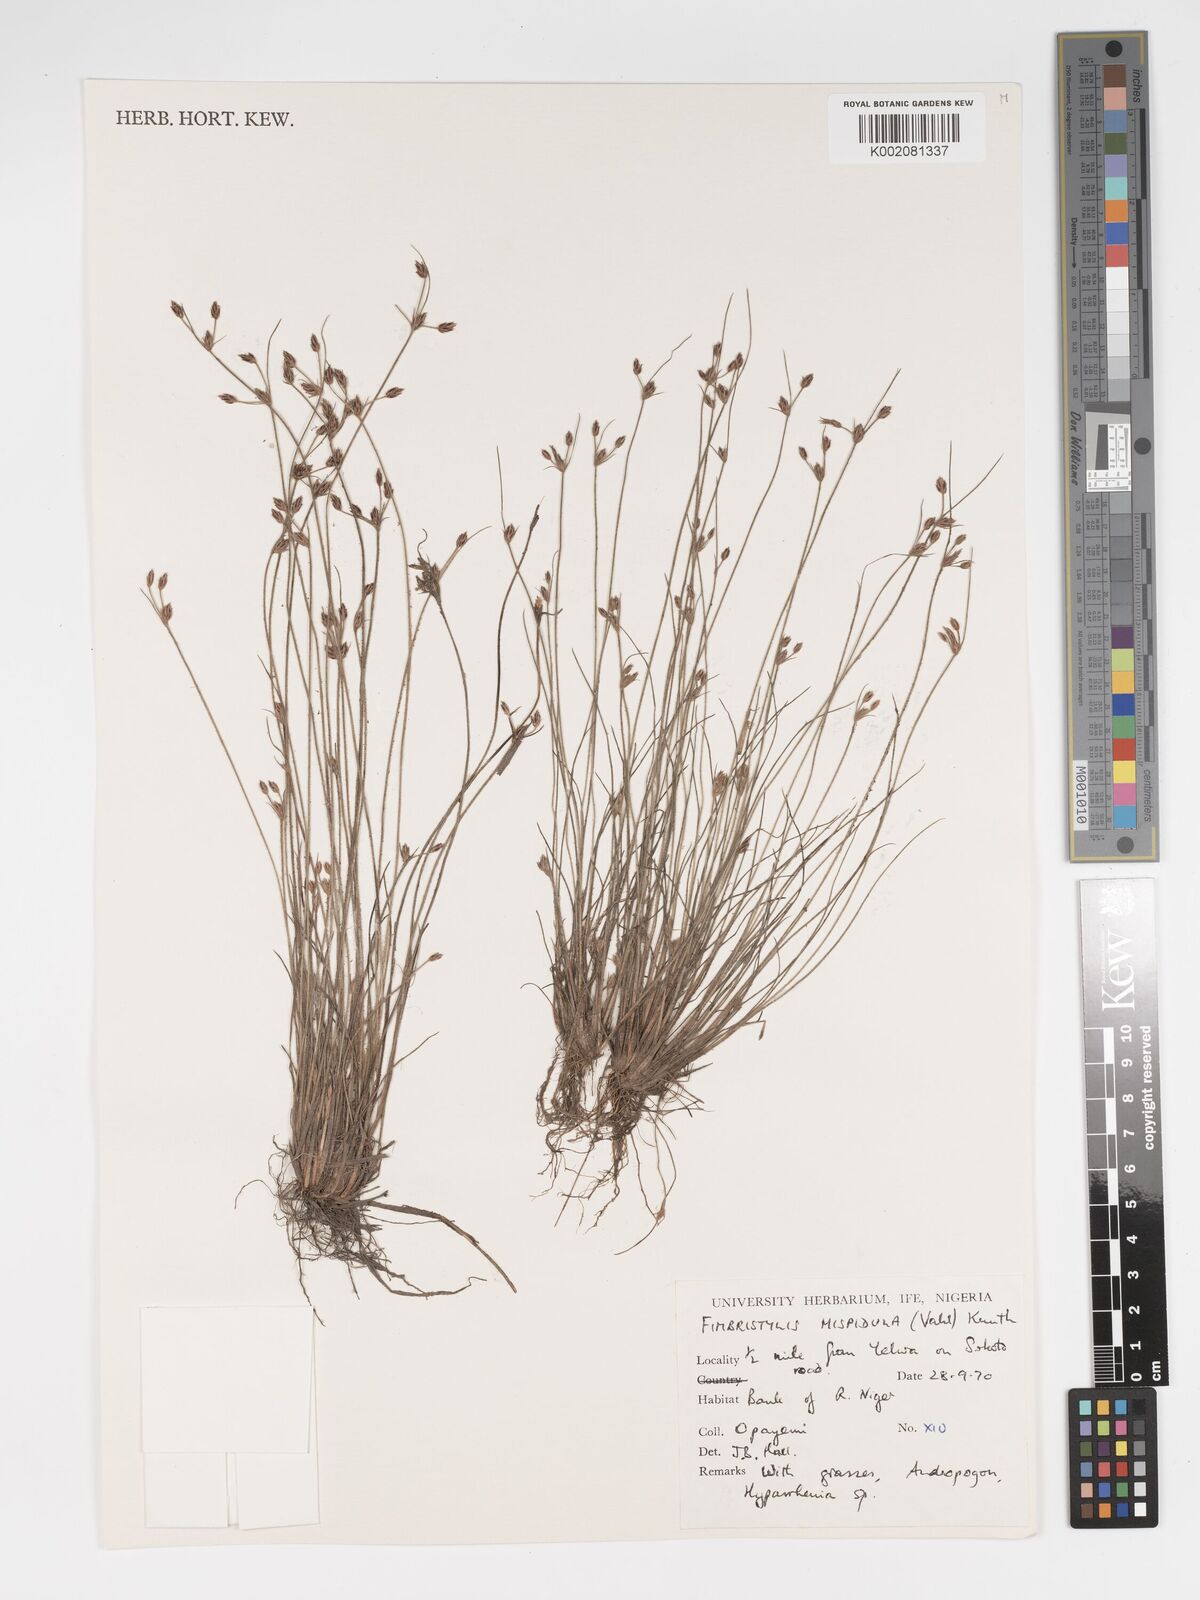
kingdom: Plantae
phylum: Tracheophyta
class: Liliopsida
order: Poales
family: Cyperaceae
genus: Bulbostylis
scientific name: Bulbostylis hispidula
